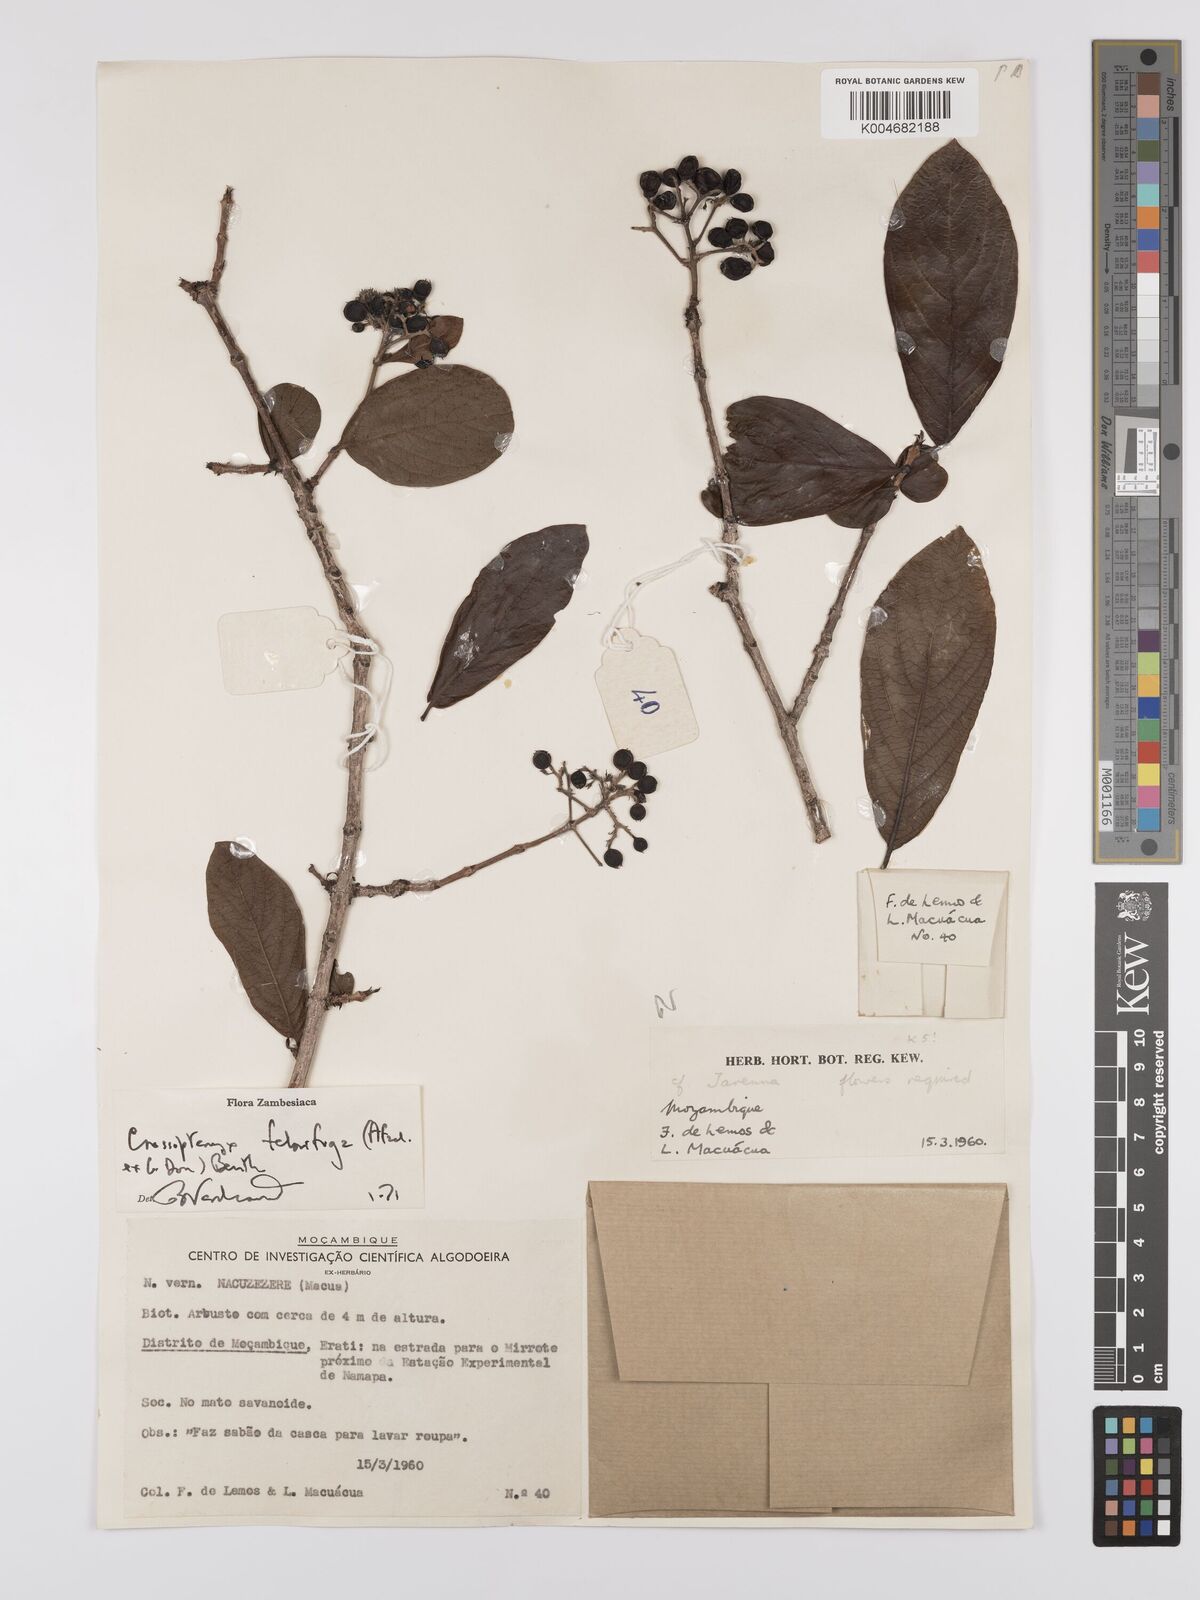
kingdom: Plantae
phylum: Tracheophyta
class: Magnoliopsida
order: Gentianales
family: Rubiaceae
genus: Crossopteryx
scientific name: Crossopteryx febrifuga
